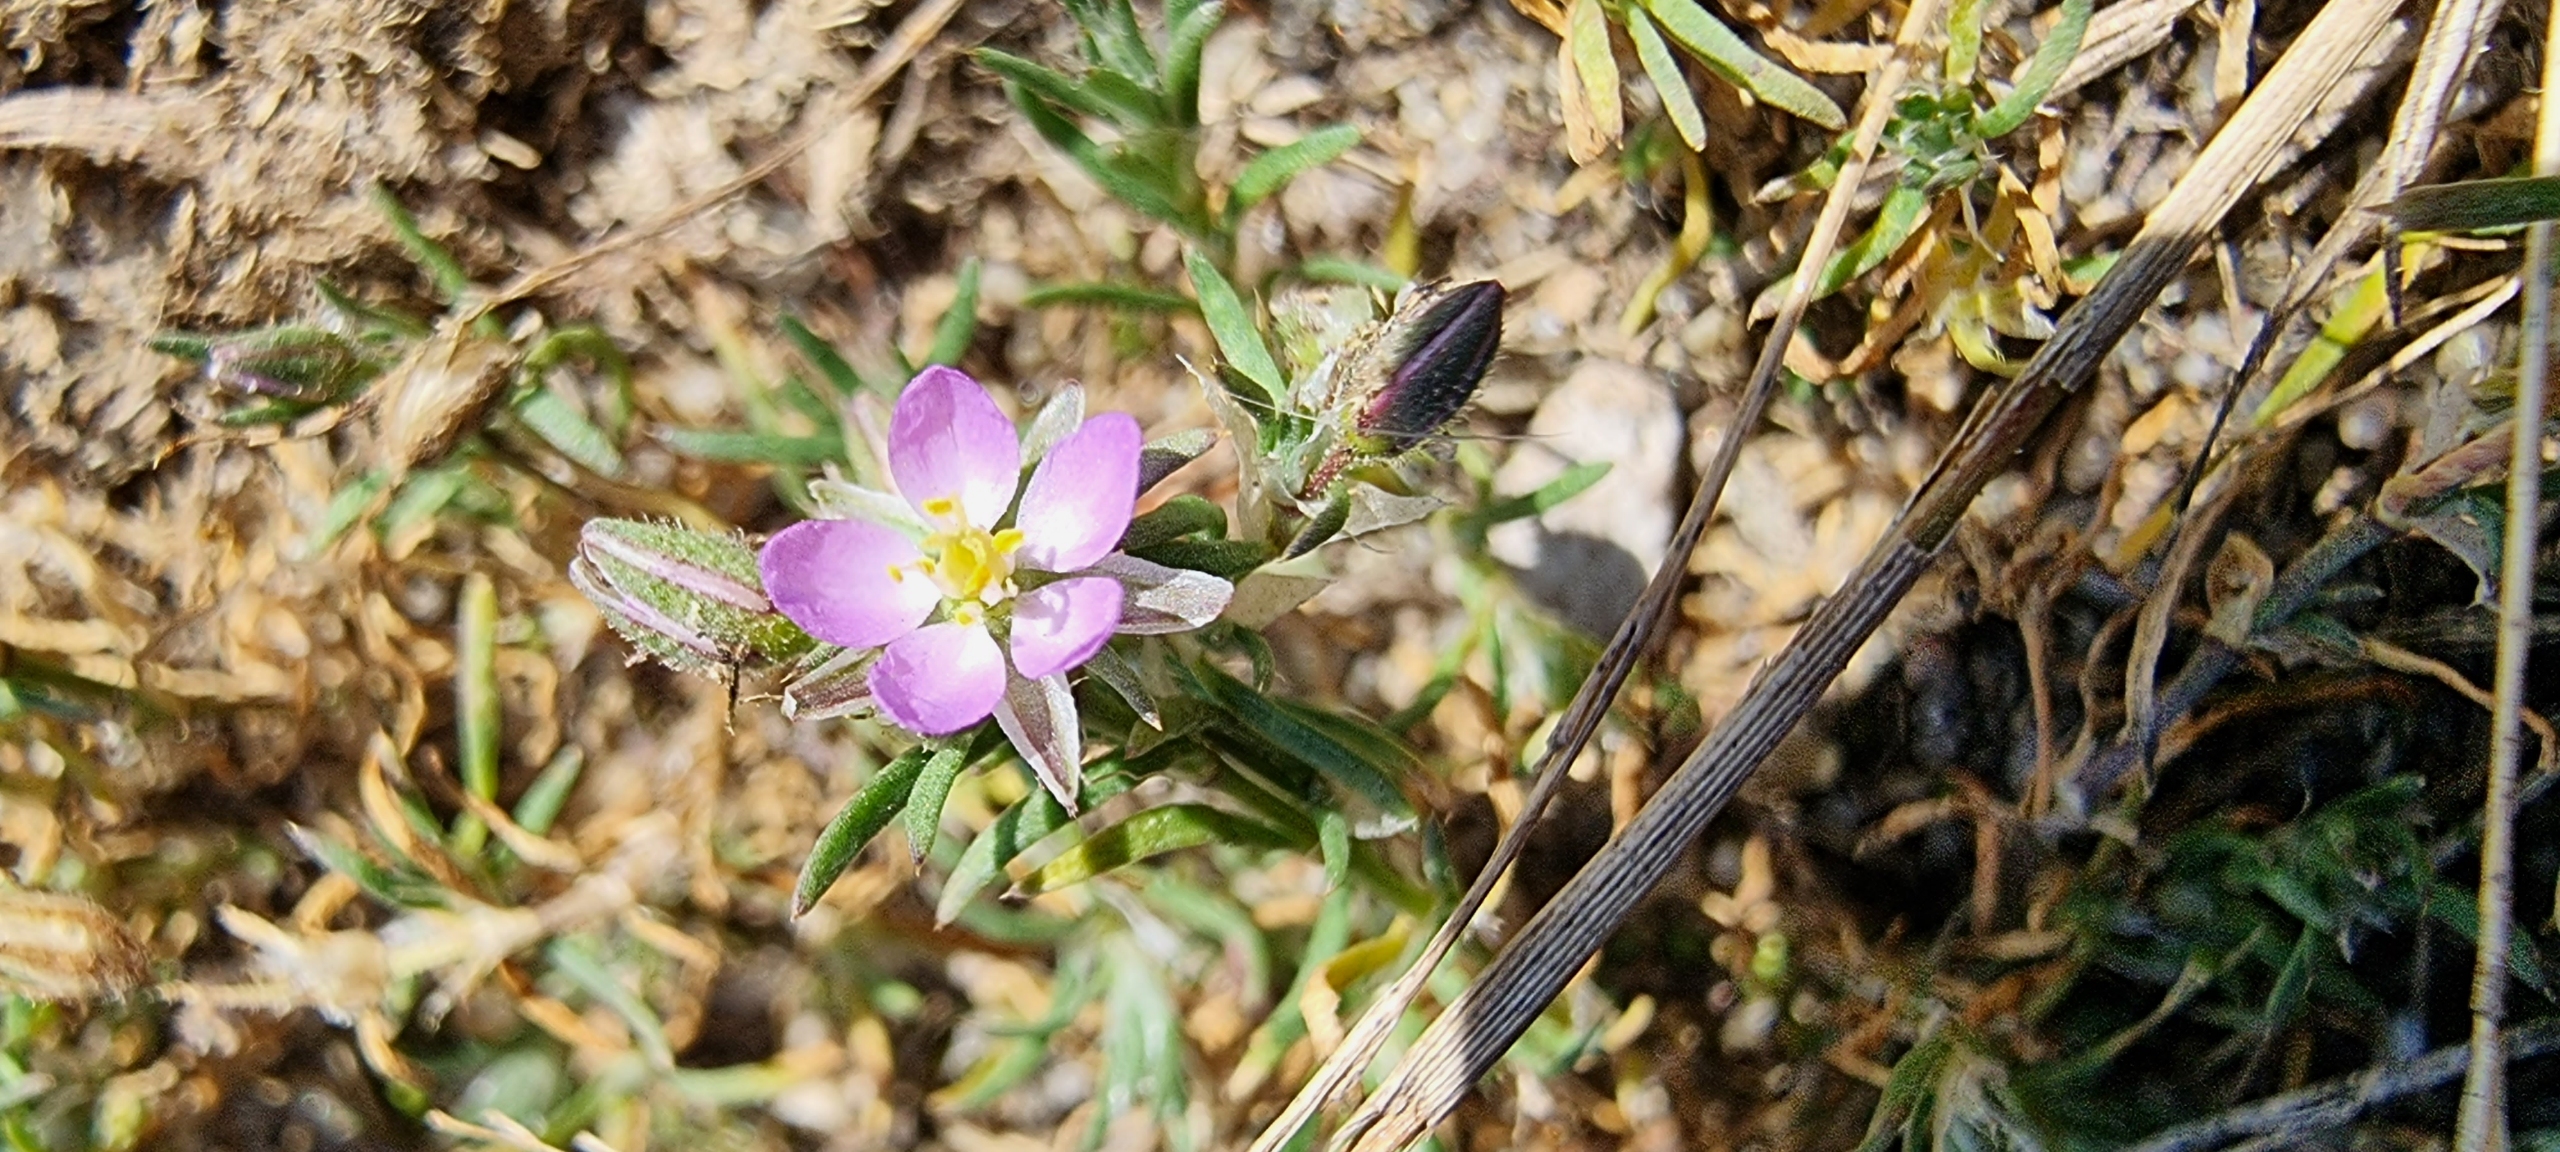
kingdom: Plantae
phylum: Tracheophyta
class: Magnoliopsida
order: Caryophyllales
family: Caryophyllaceae
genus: Spergularia
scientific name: Spergularia rubra
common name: Mark-hindeknæ
